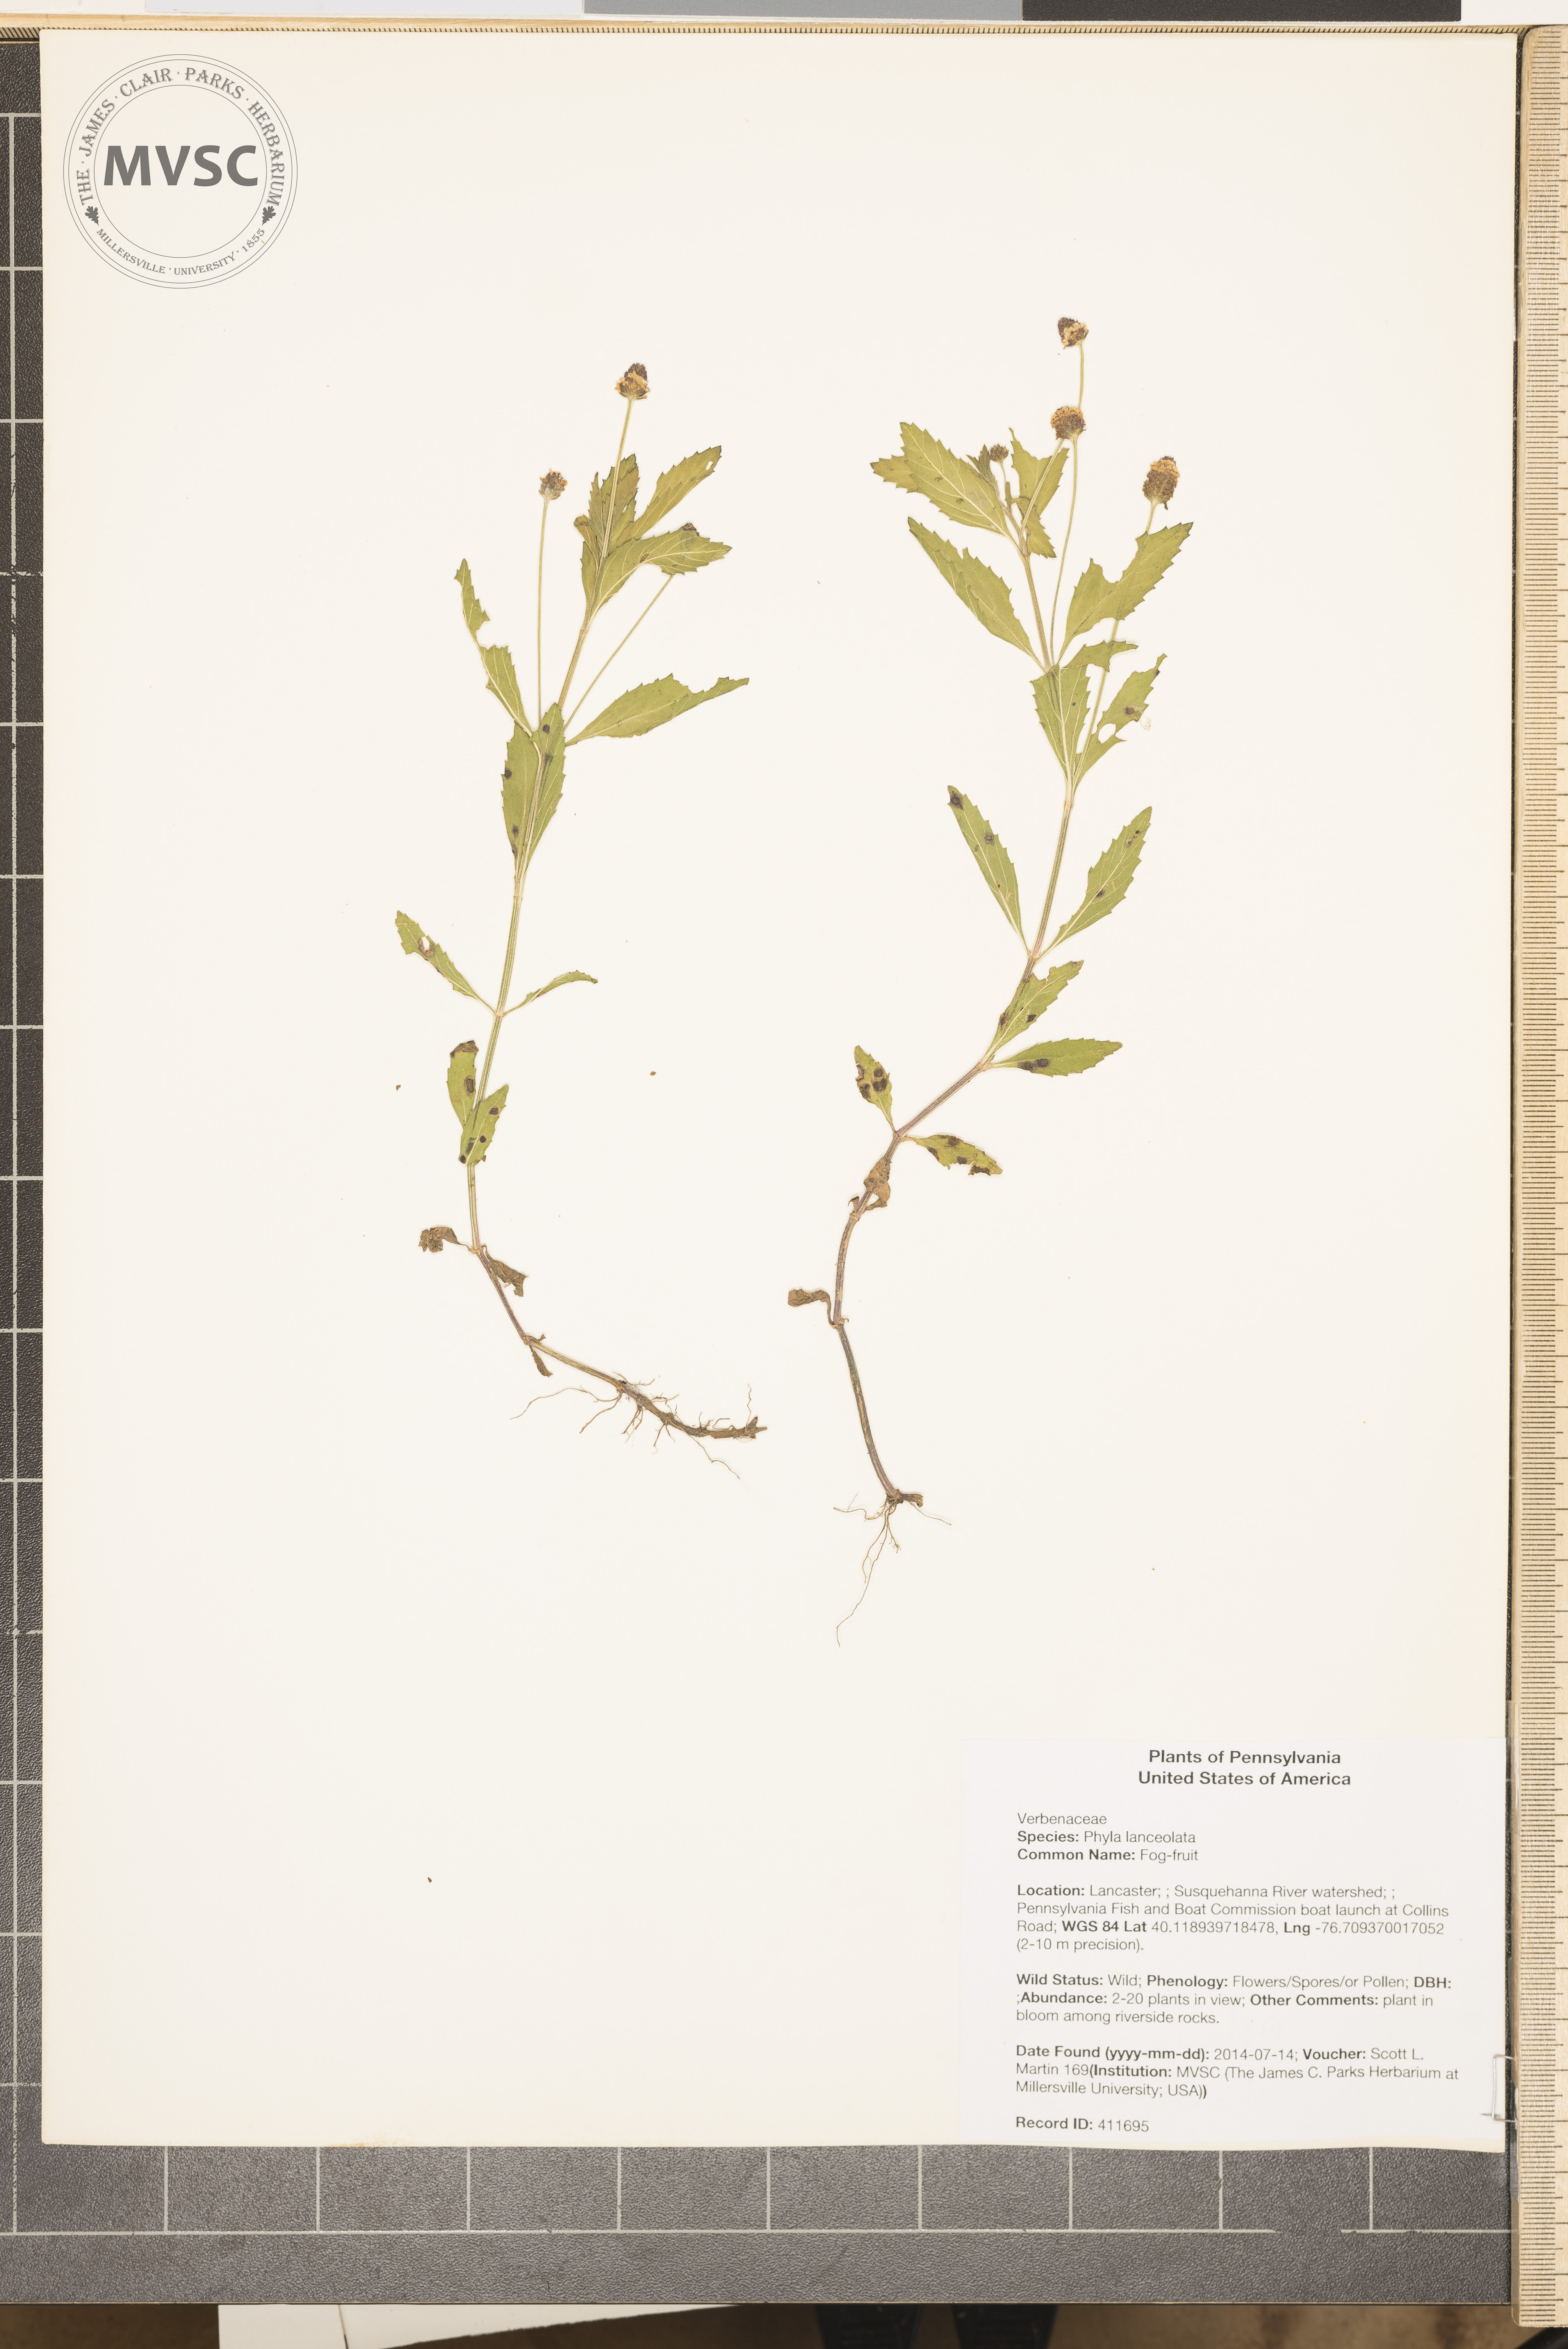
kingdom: Plantae
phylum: Tracheophyta
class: Magnoliopsida
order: Lamiales
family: Verbenaceae
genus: Phyla
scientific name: Phyla lanceolata
